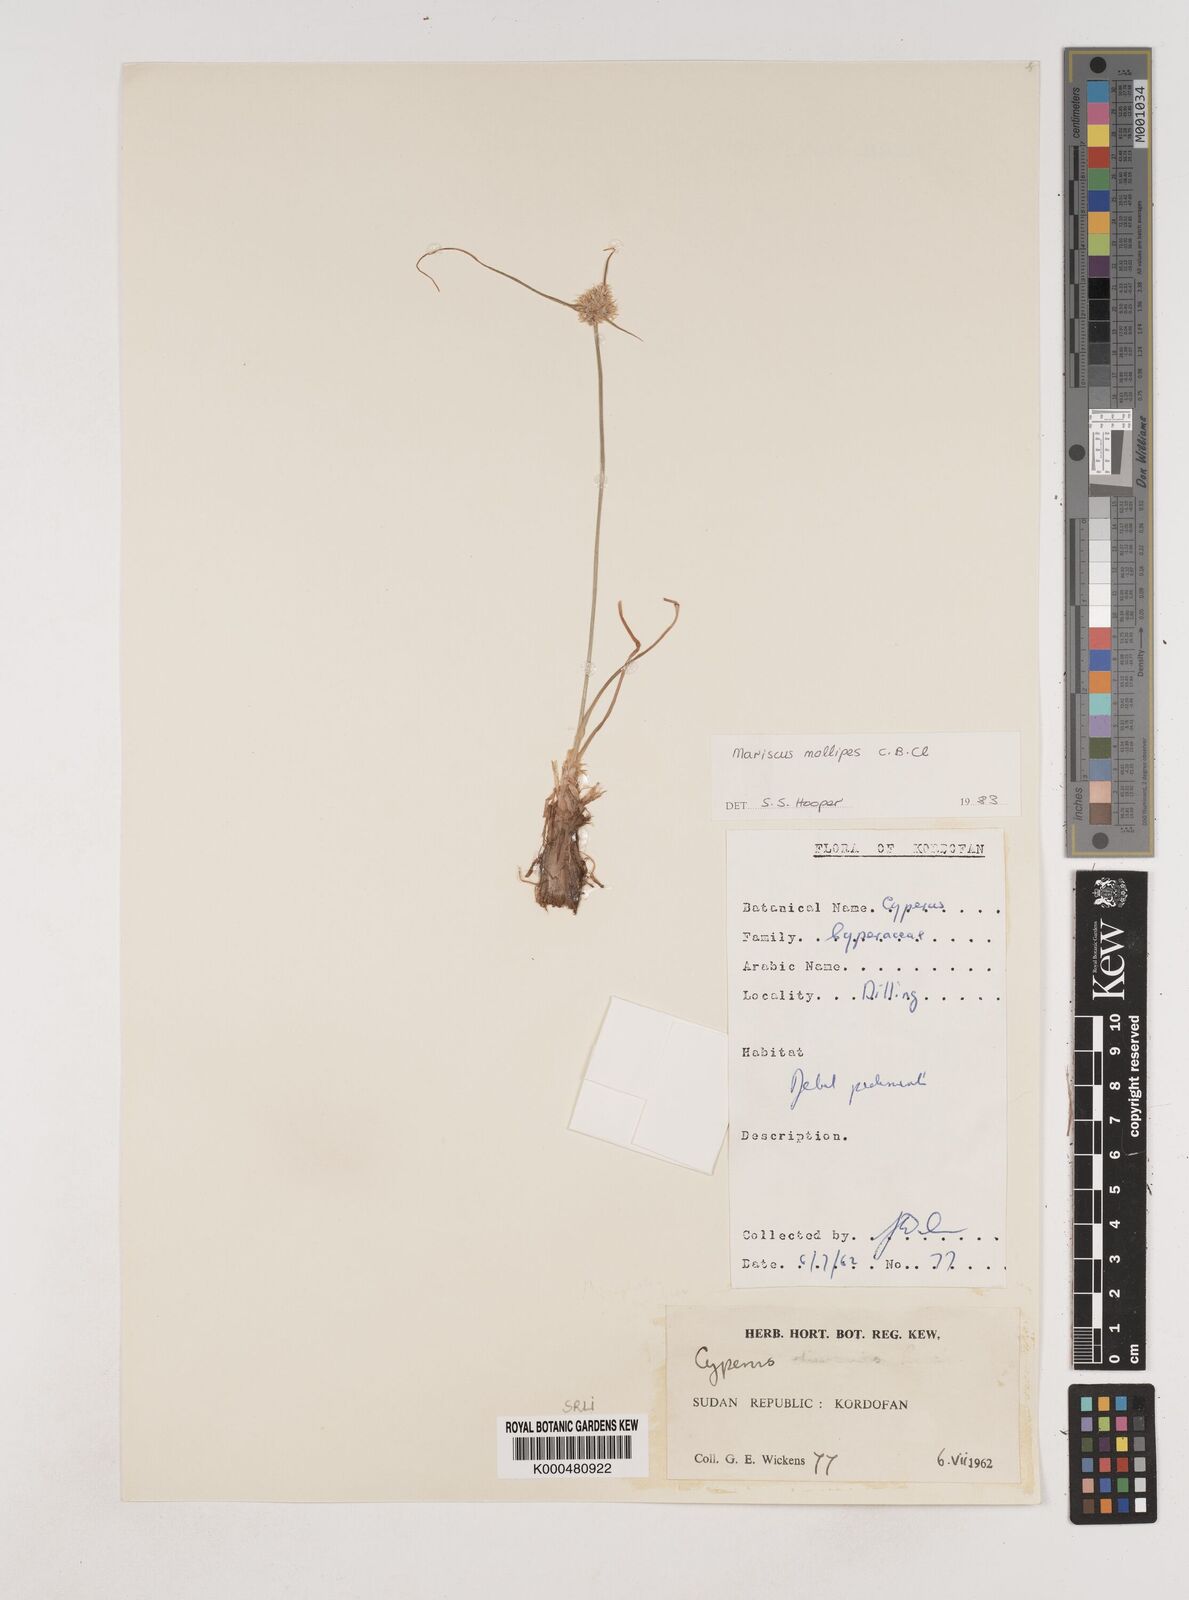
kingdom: Plantae
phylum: Tracheophyta
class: Liliopsida
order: Poales
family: Cyperaceae
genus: Cyperus
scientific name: Cyperus mollipes
